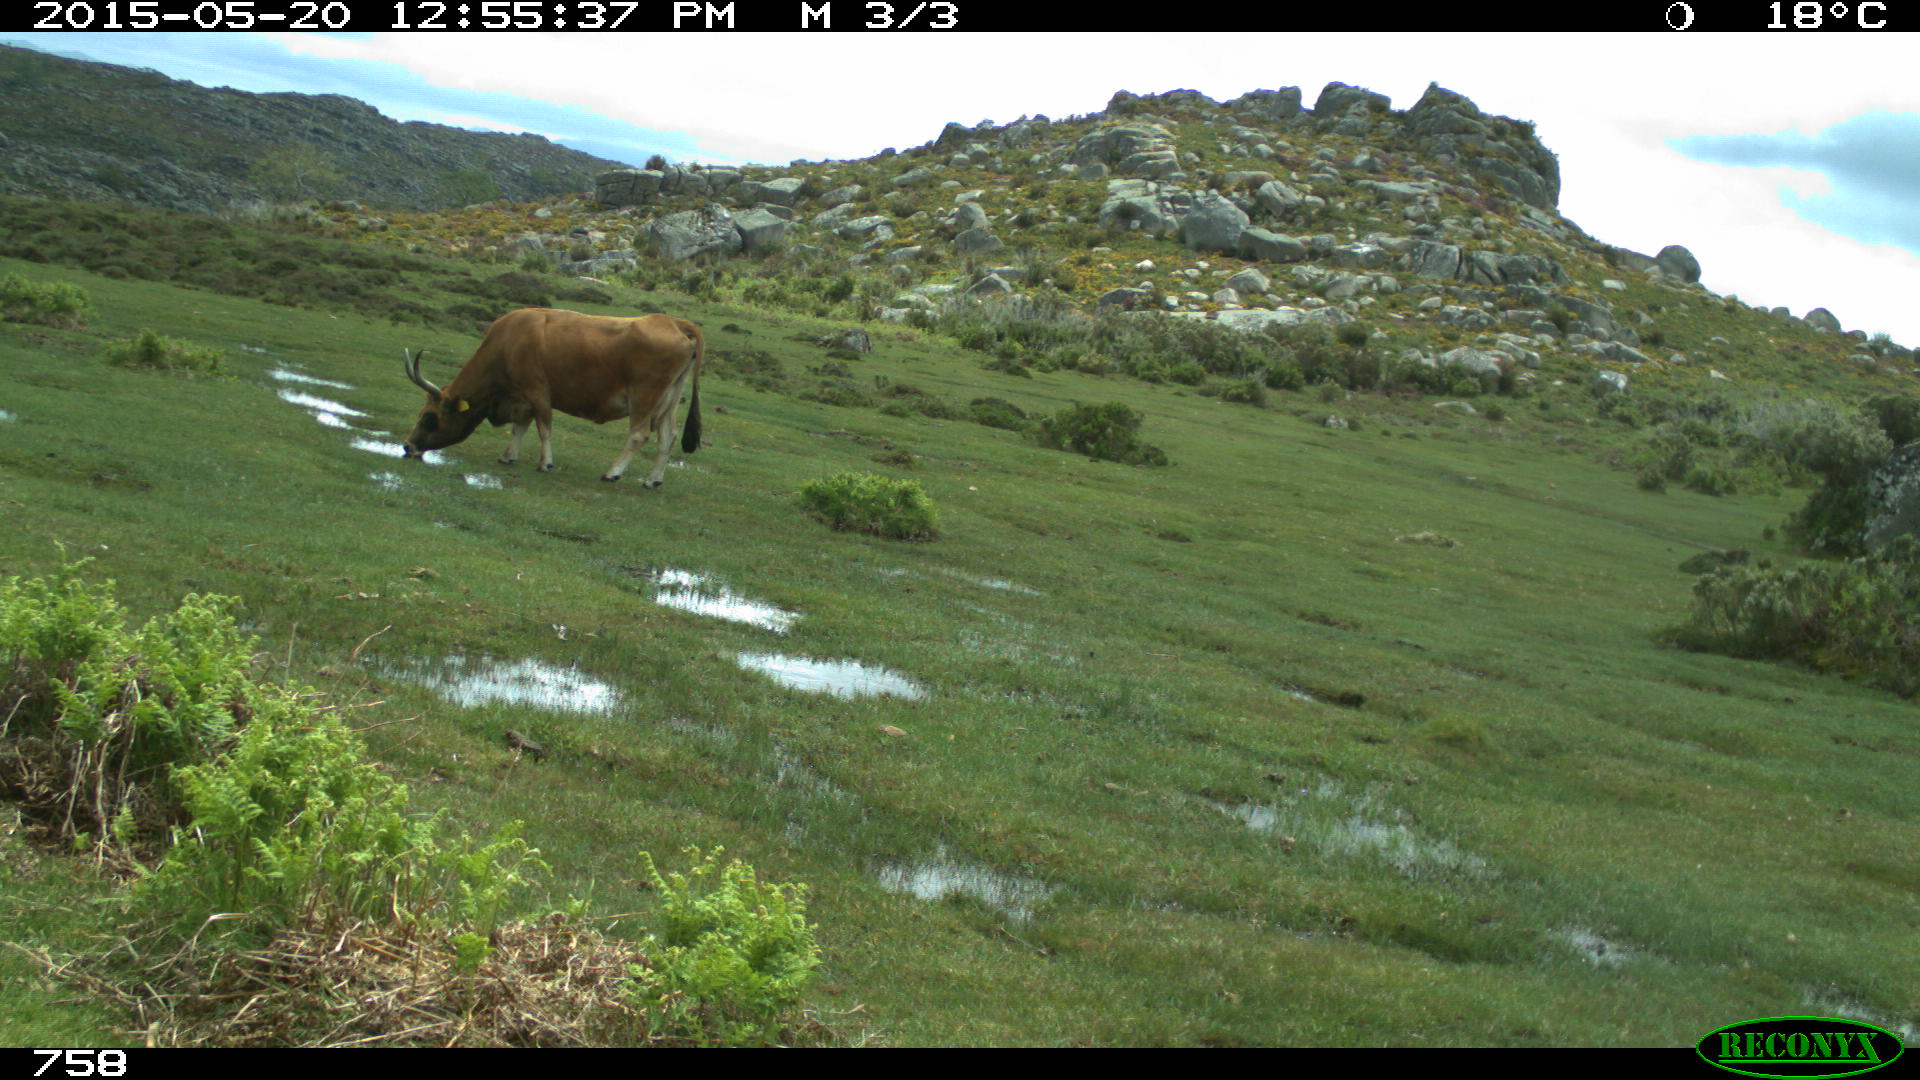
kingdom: Animalia
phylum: Chordata
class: Mammalia
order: Artiodactyla
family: Bovidae
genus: Bos
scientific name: Bos taurus
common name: Domesticated cattle
